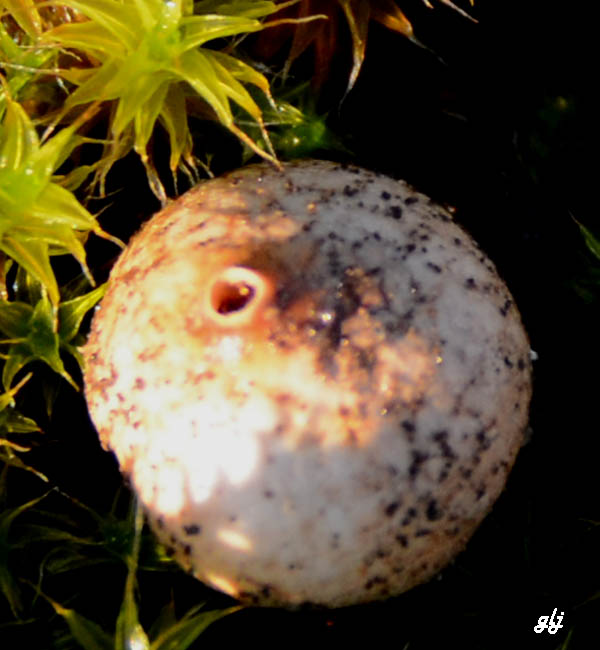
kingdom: Fungi
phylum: Basidiomycota
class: Agaricomycetes
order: Agaricales
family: Agaricaceae
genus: Tulostoma
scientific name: Tulostoma brumale
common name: vinter-stilkbovist
